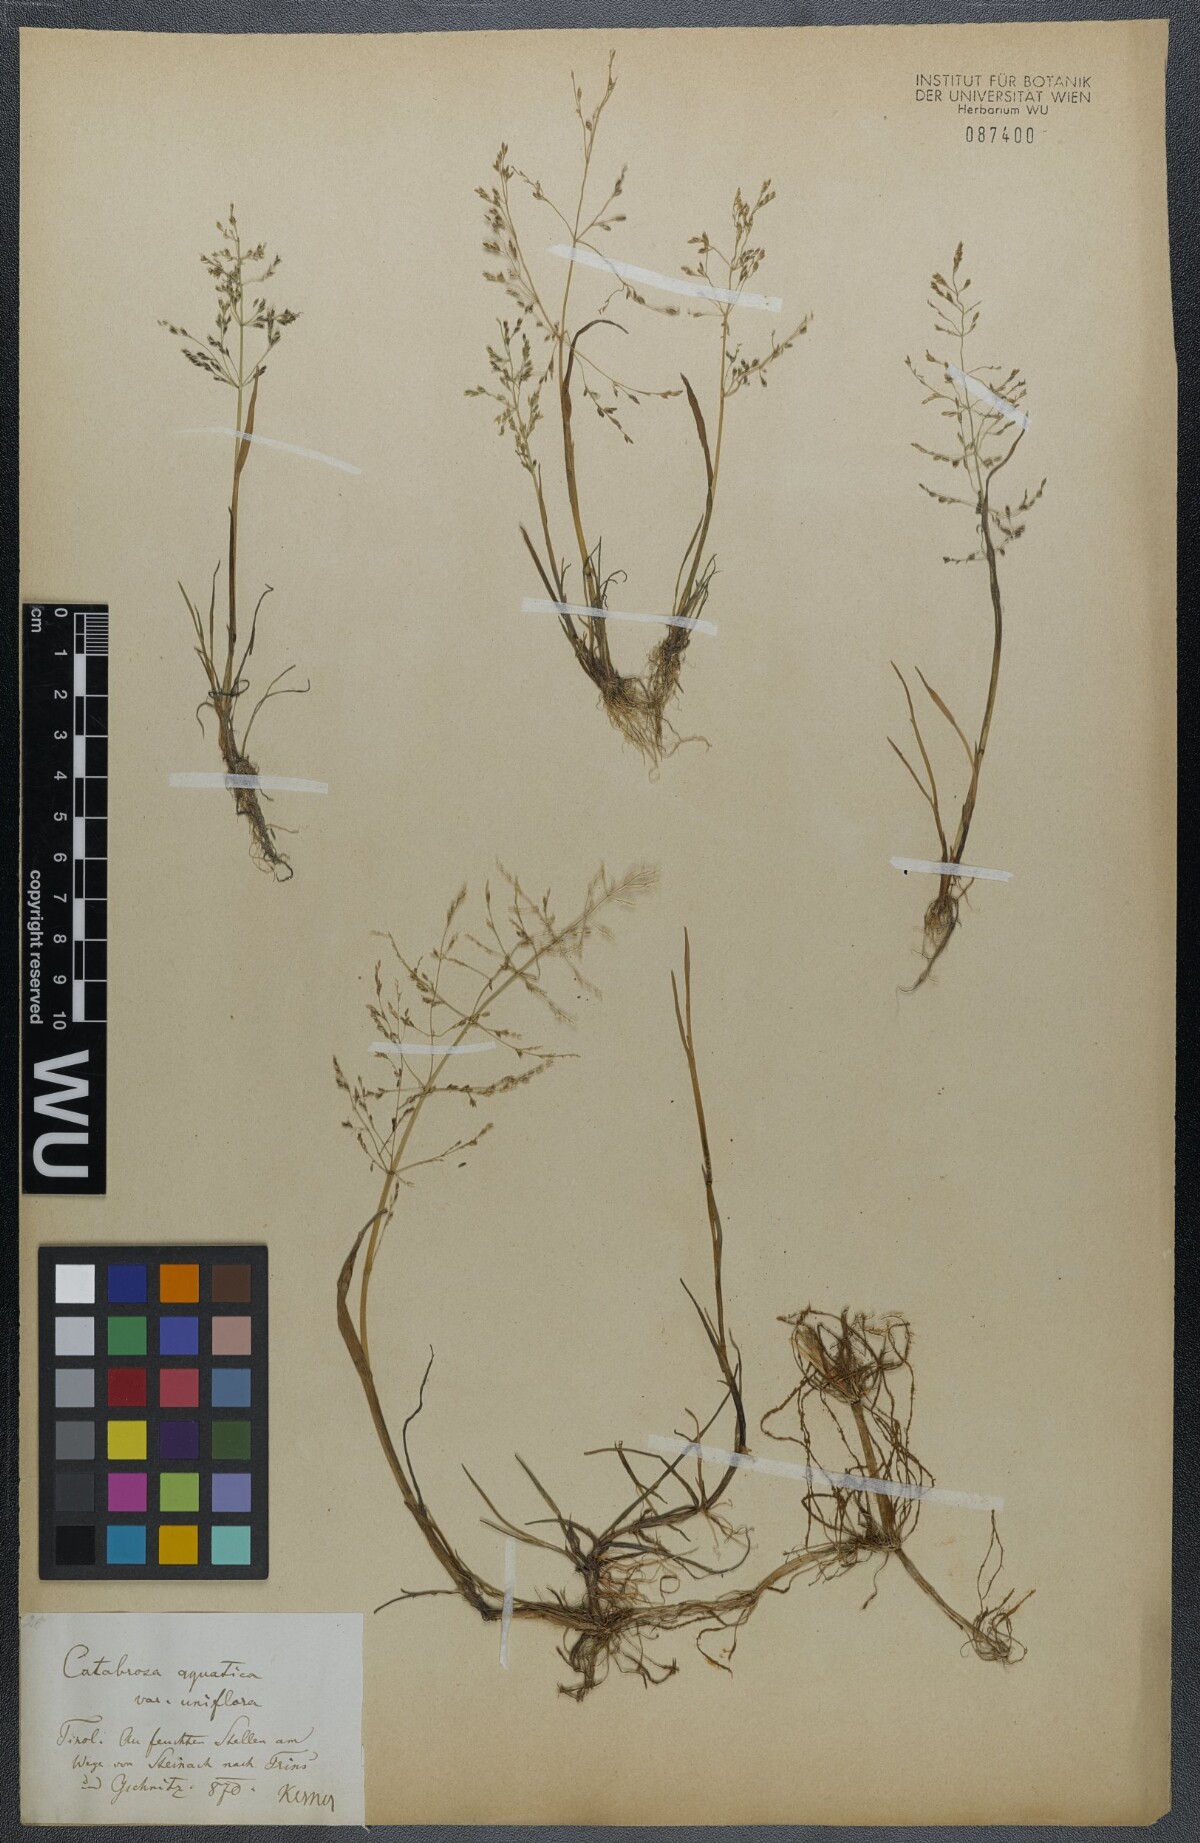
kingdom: Plantae
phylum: Tracheophyta
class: Liliopsida
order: Poales
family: Poaceae
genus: Catabrosa
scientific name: Catabrosa aquatica
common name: Whorl-grass
